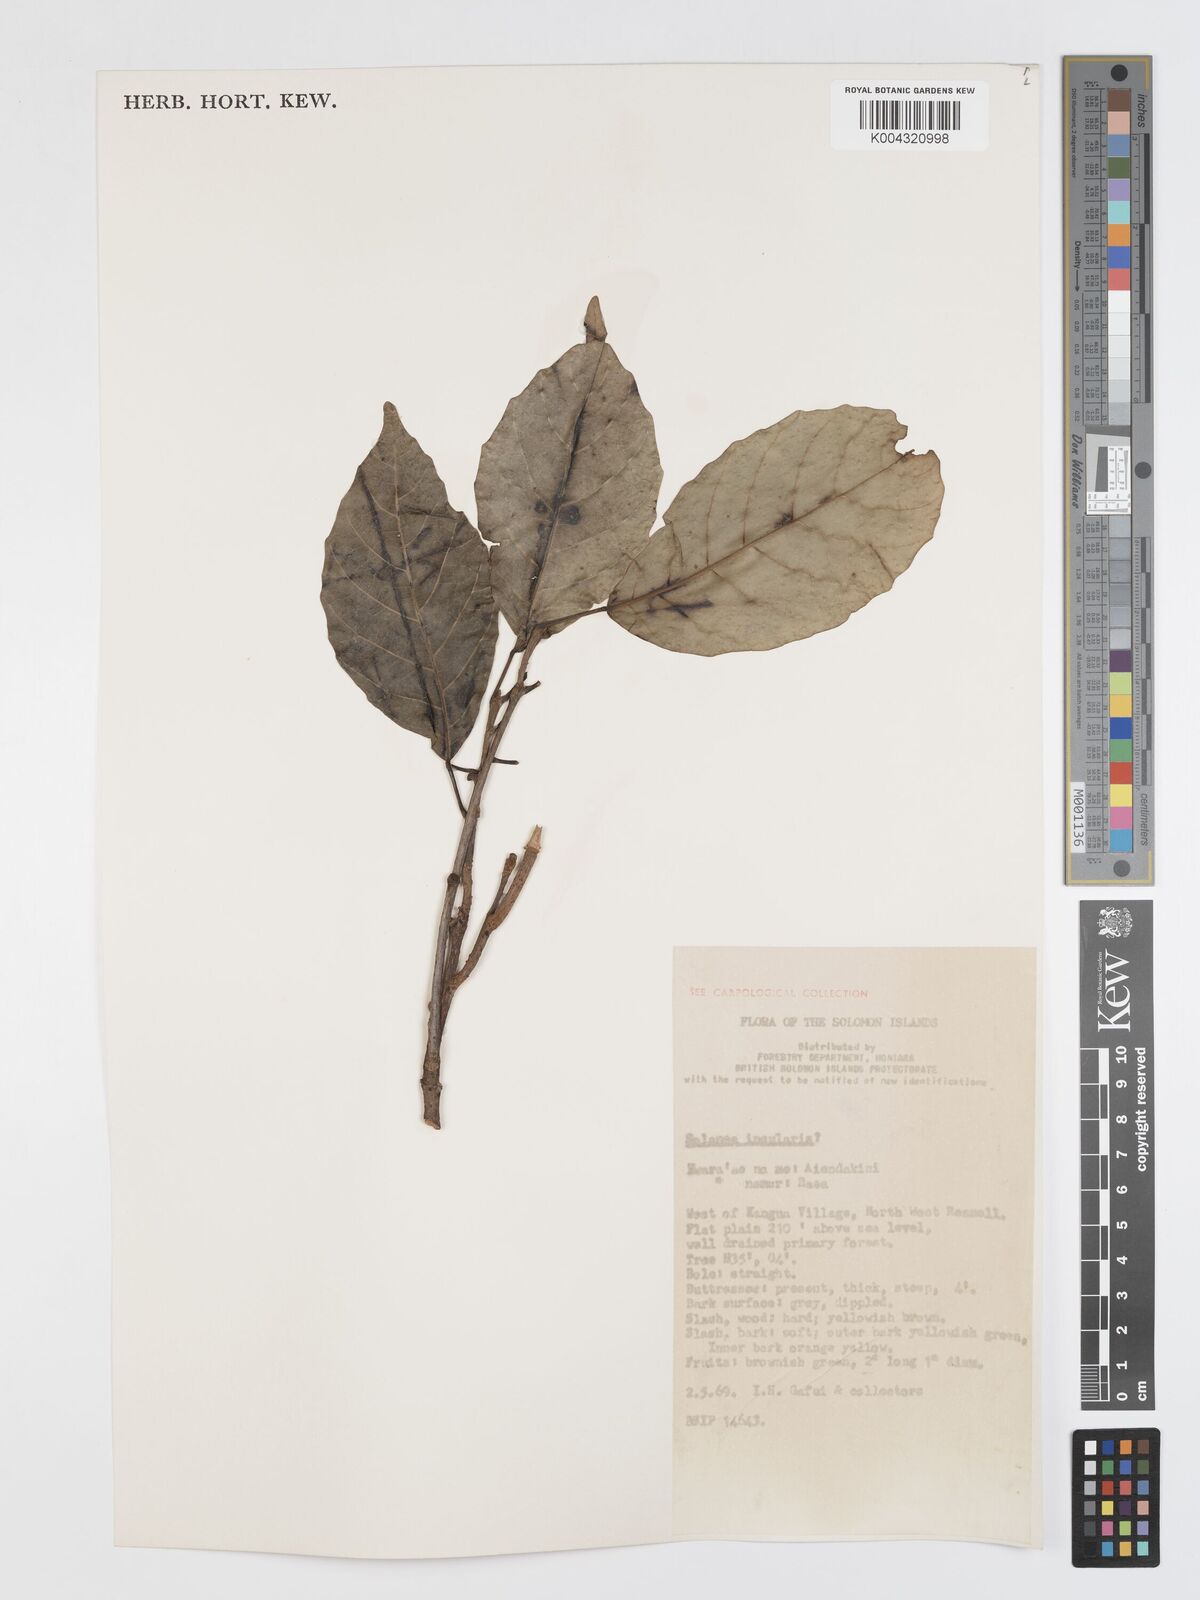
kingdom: Plantae
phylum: Tracheophyta
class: Magnoliopsida
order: Oxalidales
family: Elaeocarpaceae
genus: Sloanea
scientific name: Sloanea insularis
